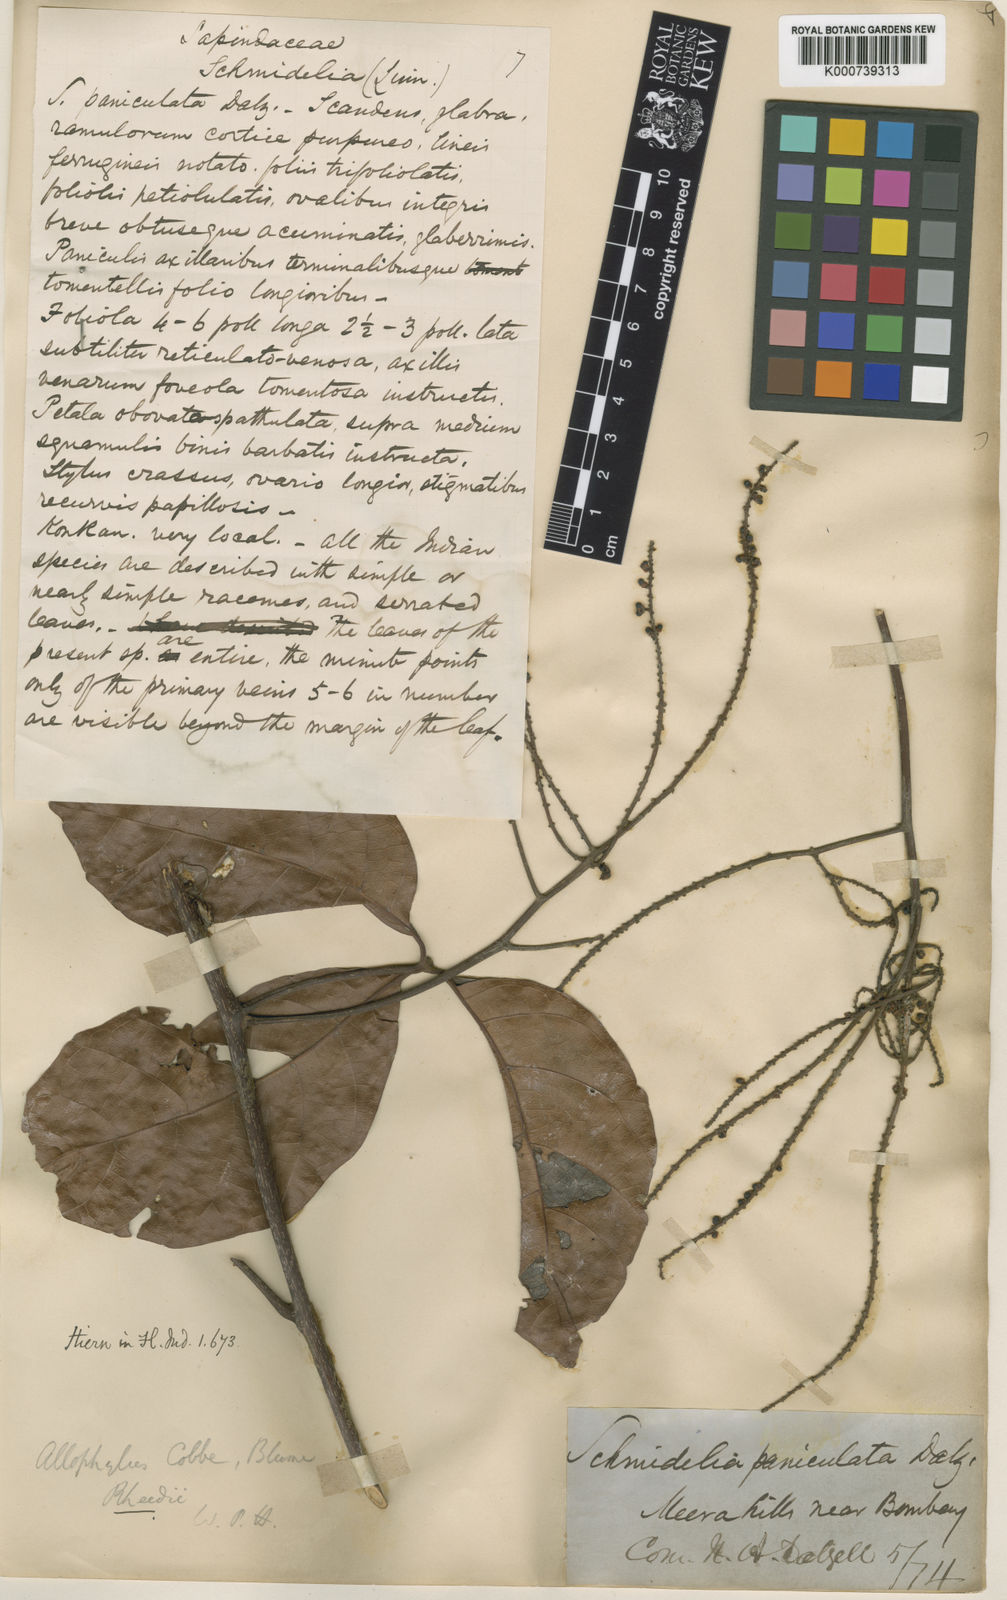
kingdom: Plantae
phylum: Tracheophyta
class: Magnoliopsida
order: Sapindales
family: Sapindaceae
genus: Allophylus
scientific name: Allophylus concanicus
